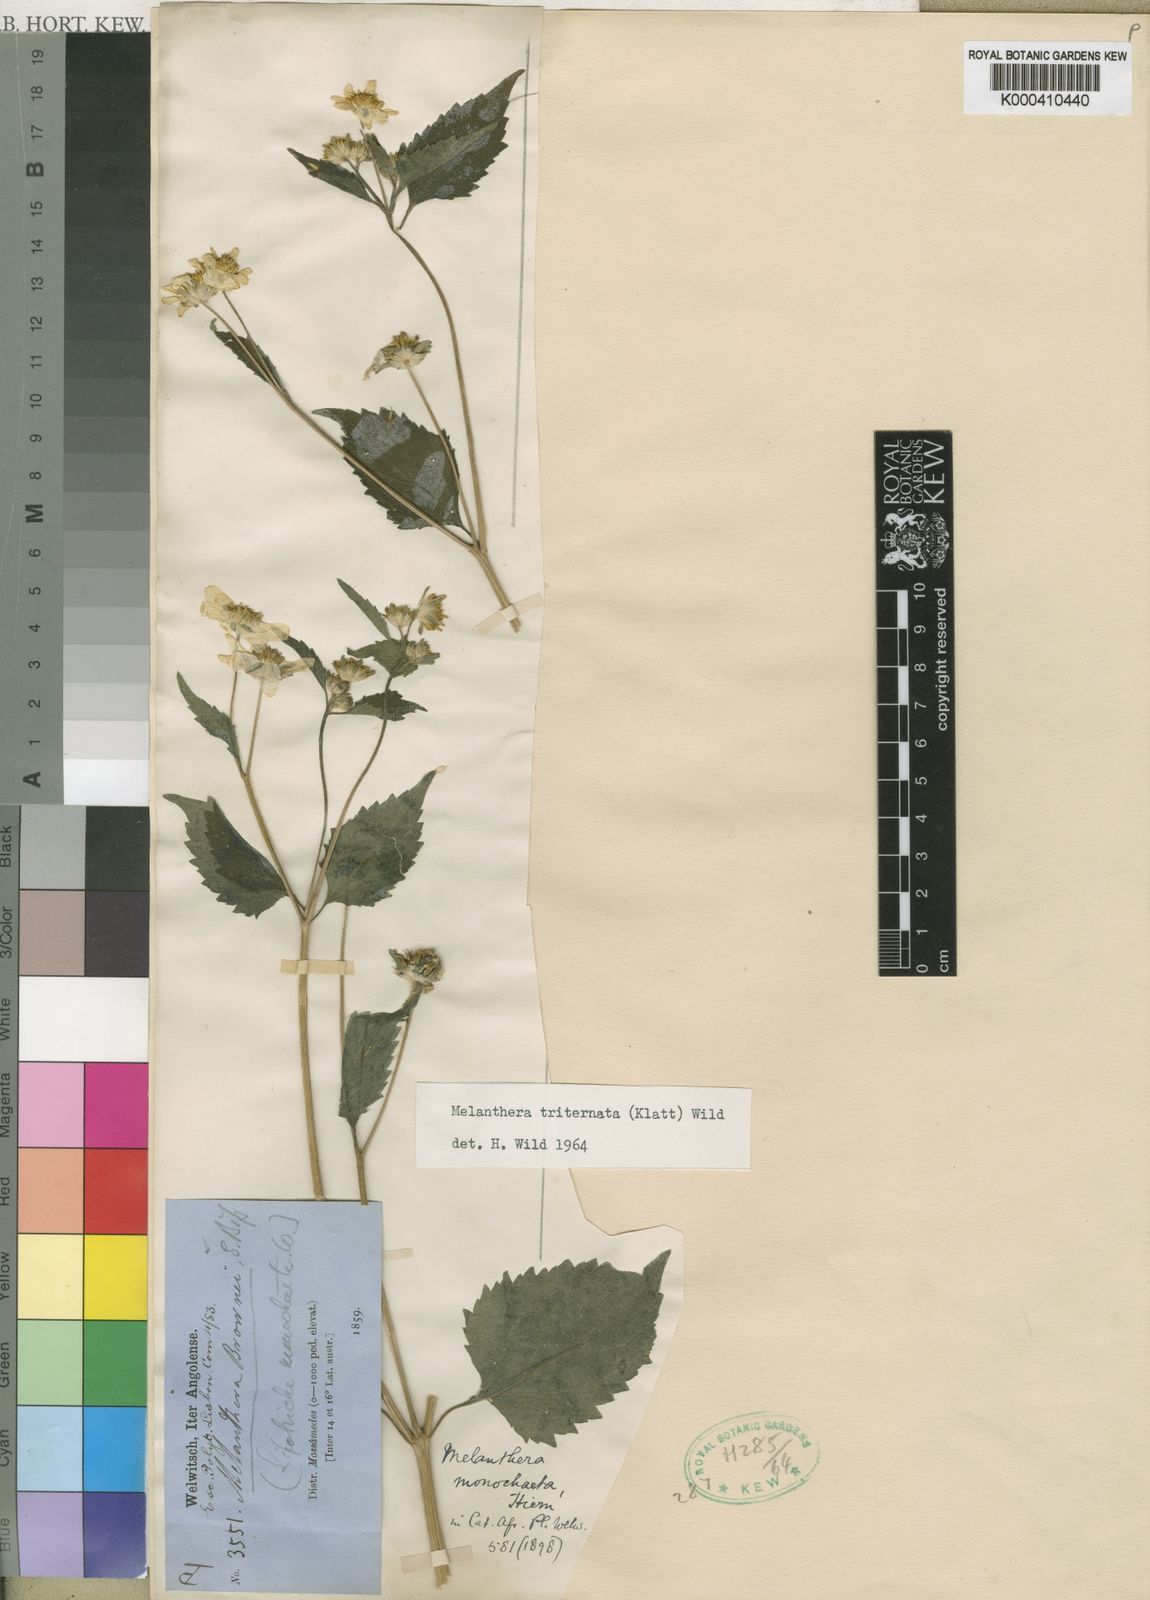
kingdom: Plantae
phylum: Tracheophyta
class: Magnoliopsida
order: Asterales
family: Asteraceae
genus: Lipotriche
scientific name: Lipotriche marlothiana
